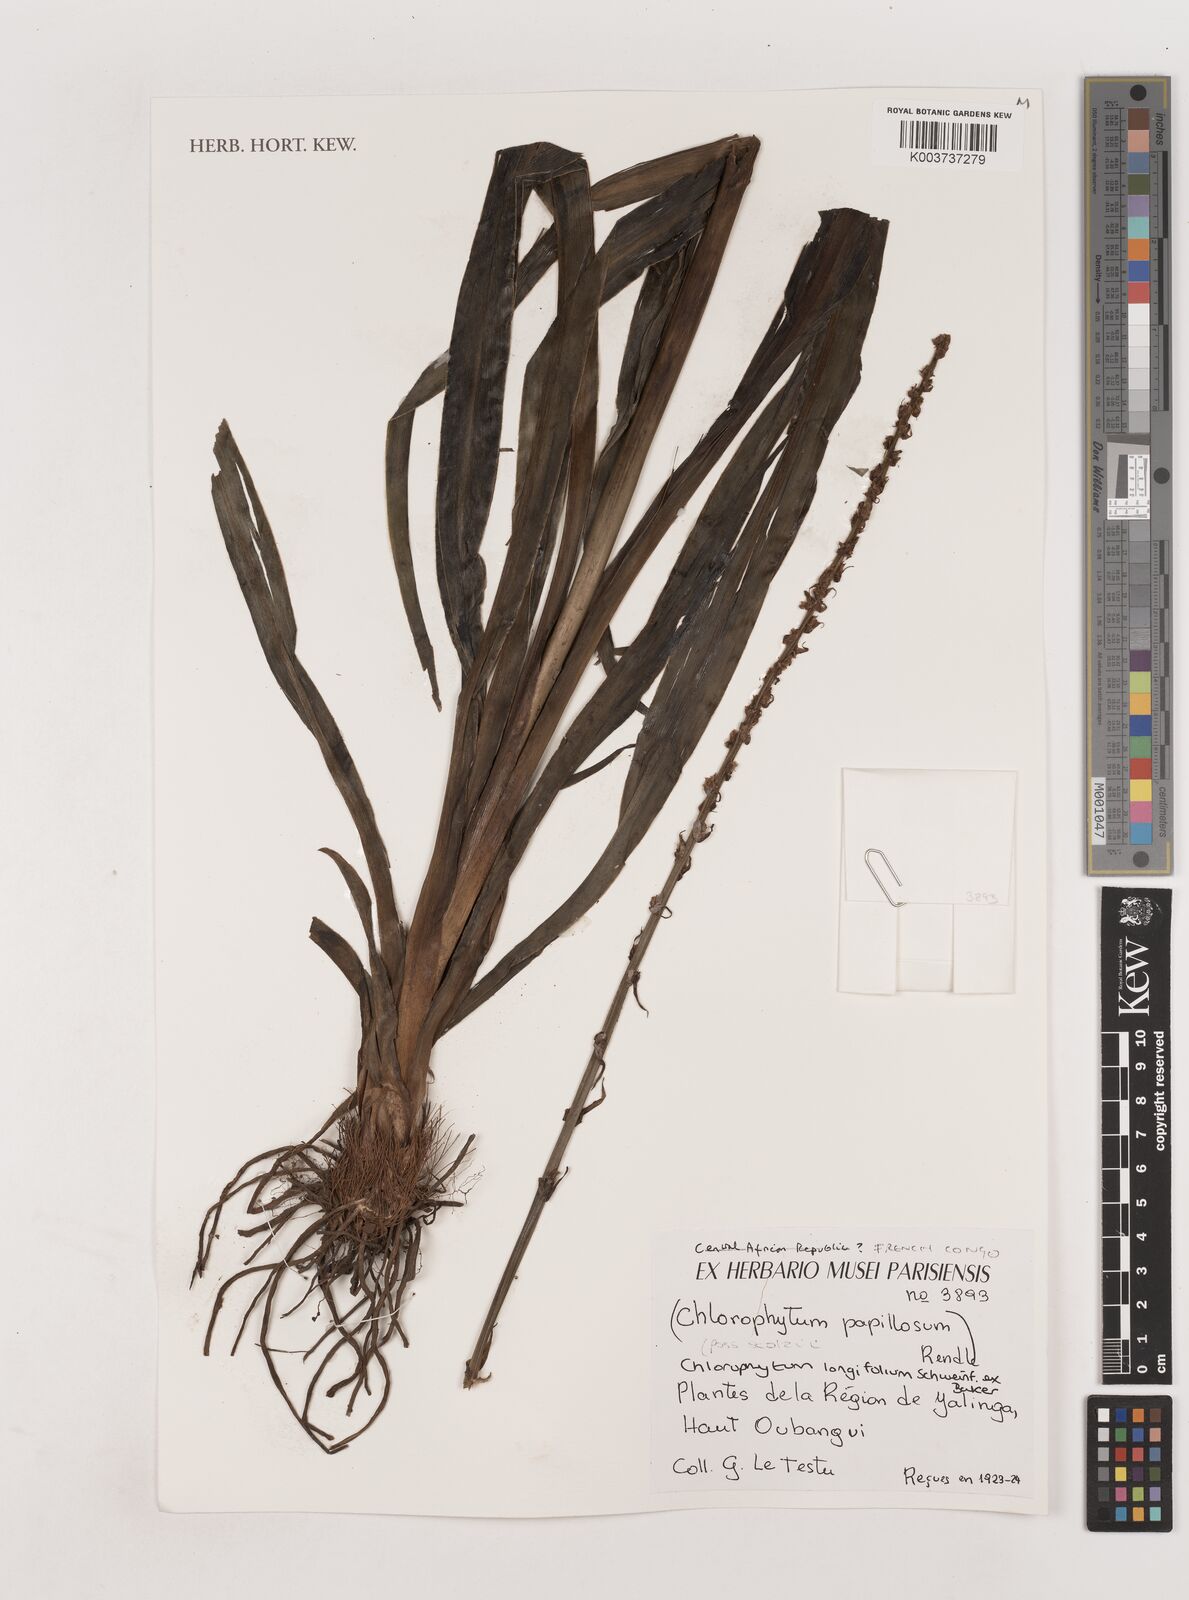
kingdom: Plantae
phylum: Tracheophyta
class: Liliopsida
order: Asparagales
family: Asparagaceae
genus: Chlorophytum
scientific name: Chlorophytum longifolium
